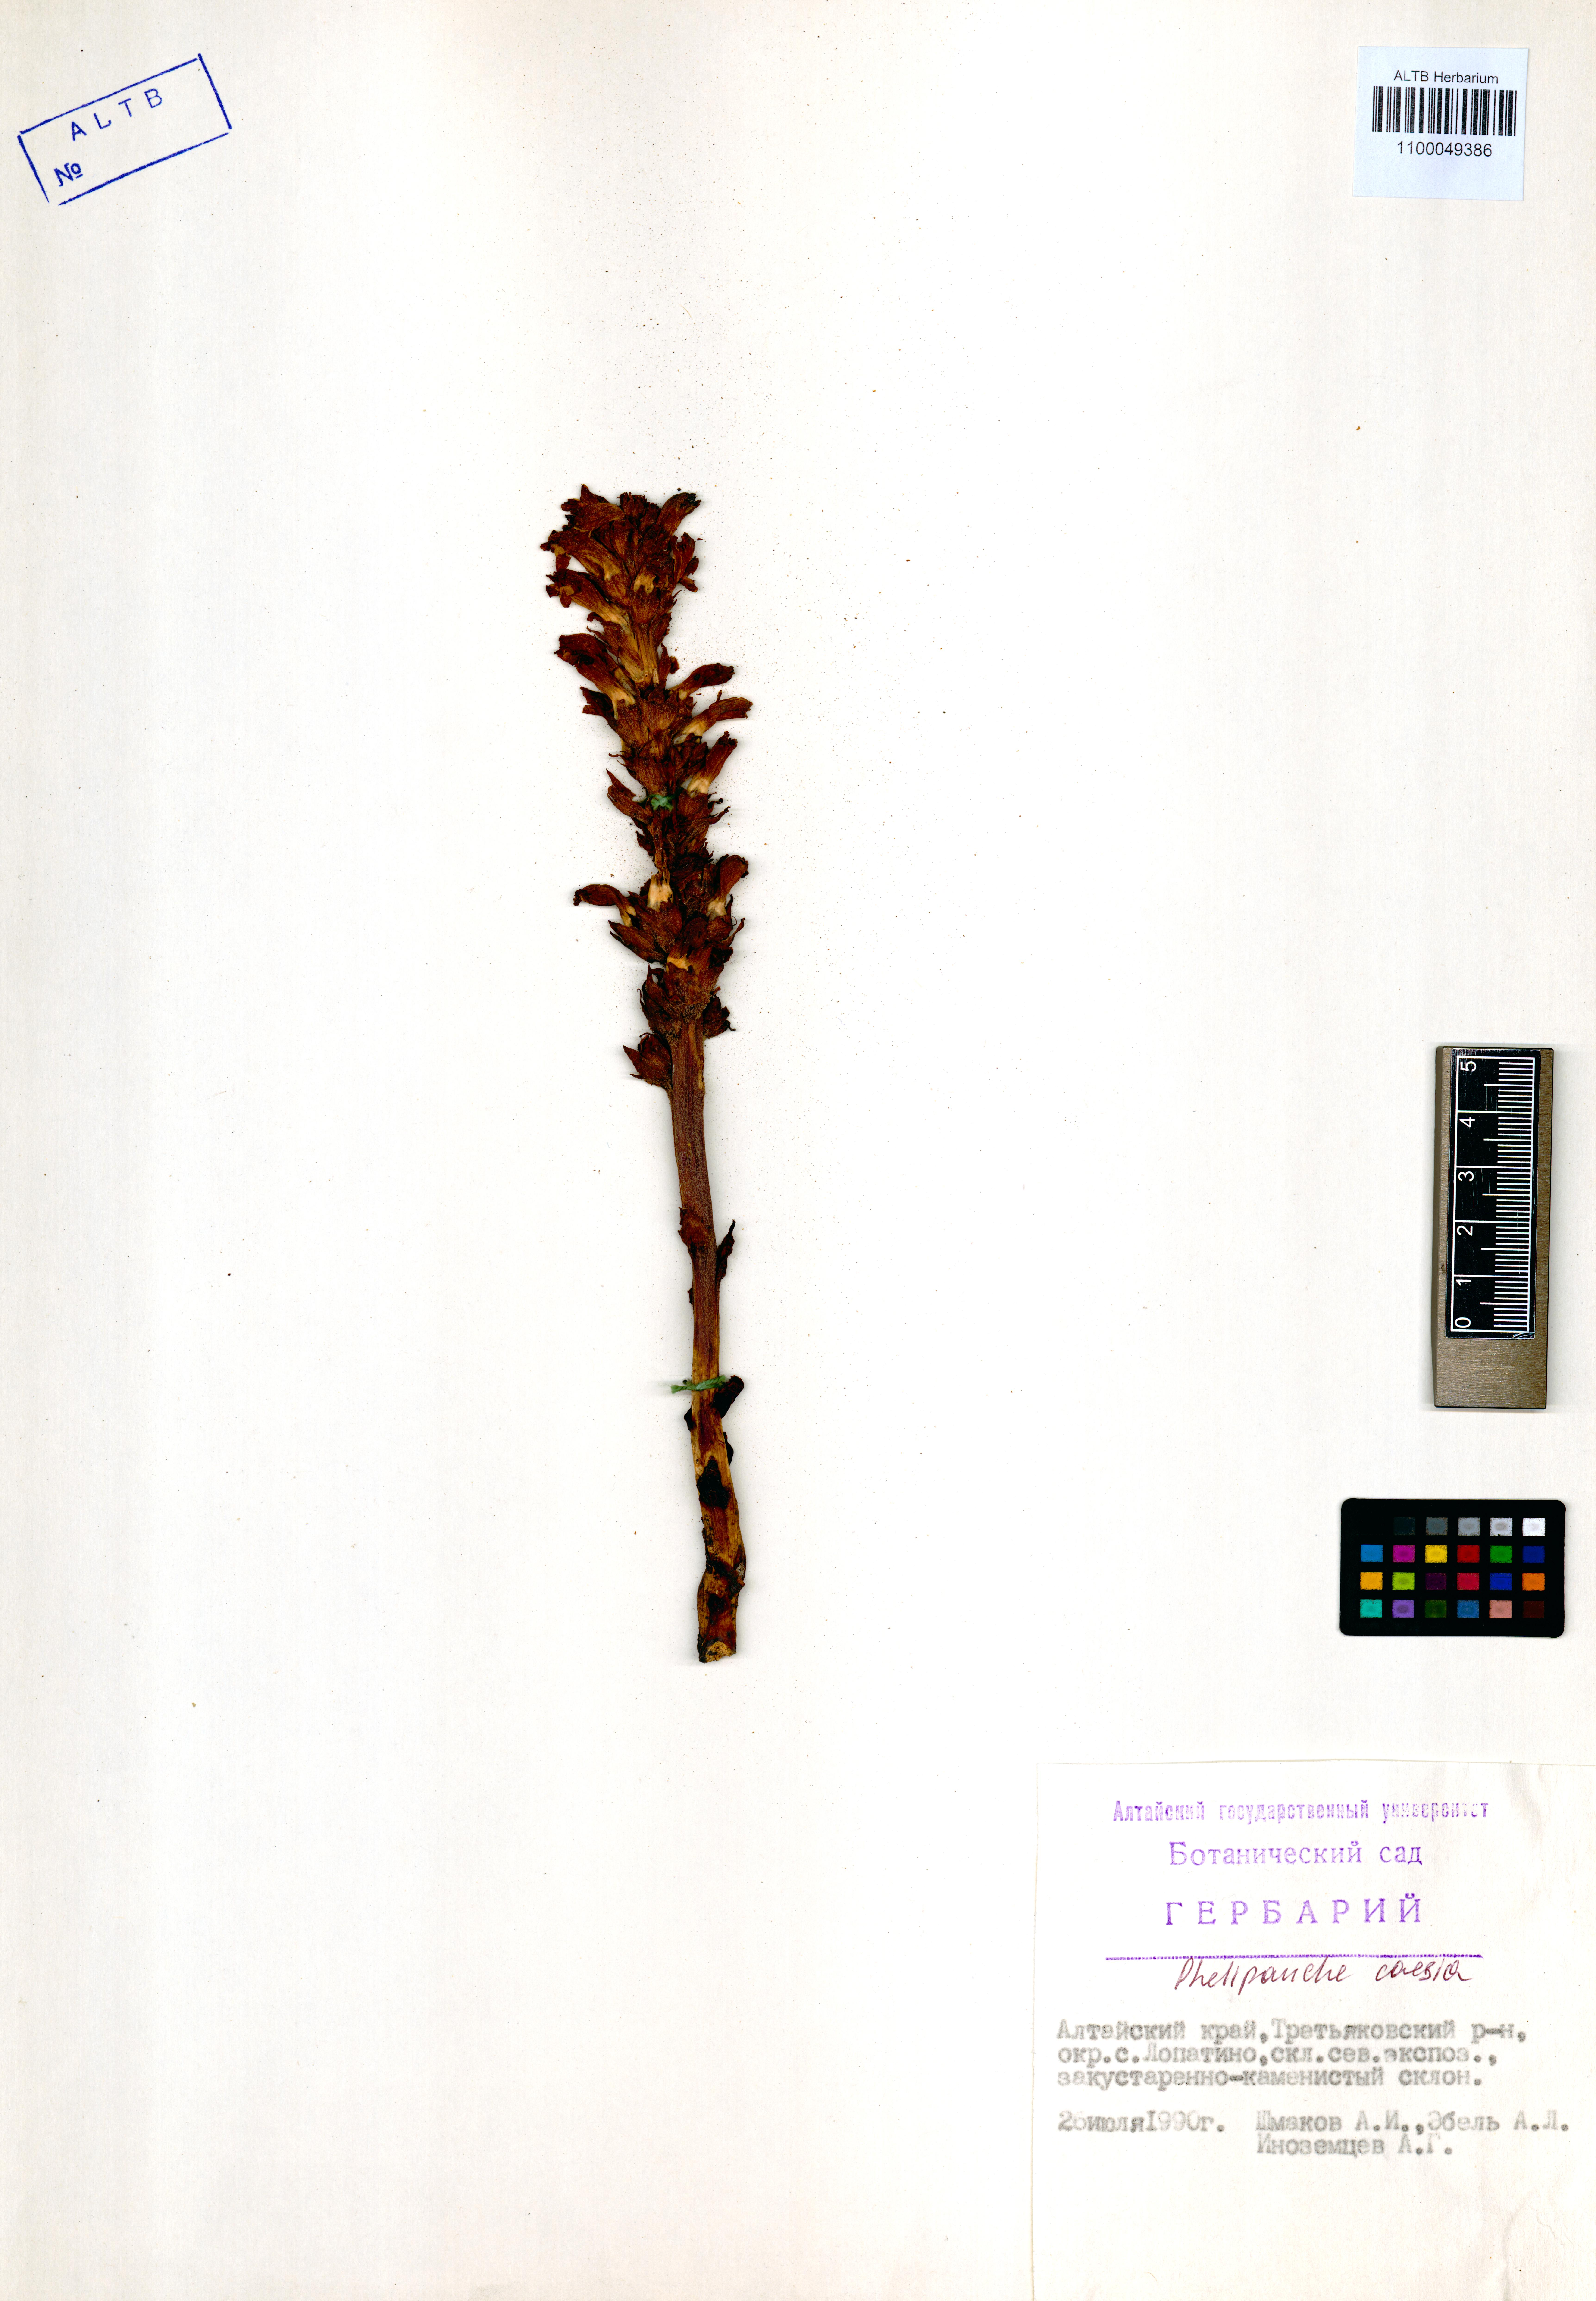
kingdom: Plantae
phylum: Tracheophyta
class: Magnoliopsida
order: Lamiales
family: Orobanchaceae
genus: Phelipanche
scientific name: Phelipanche caesia
